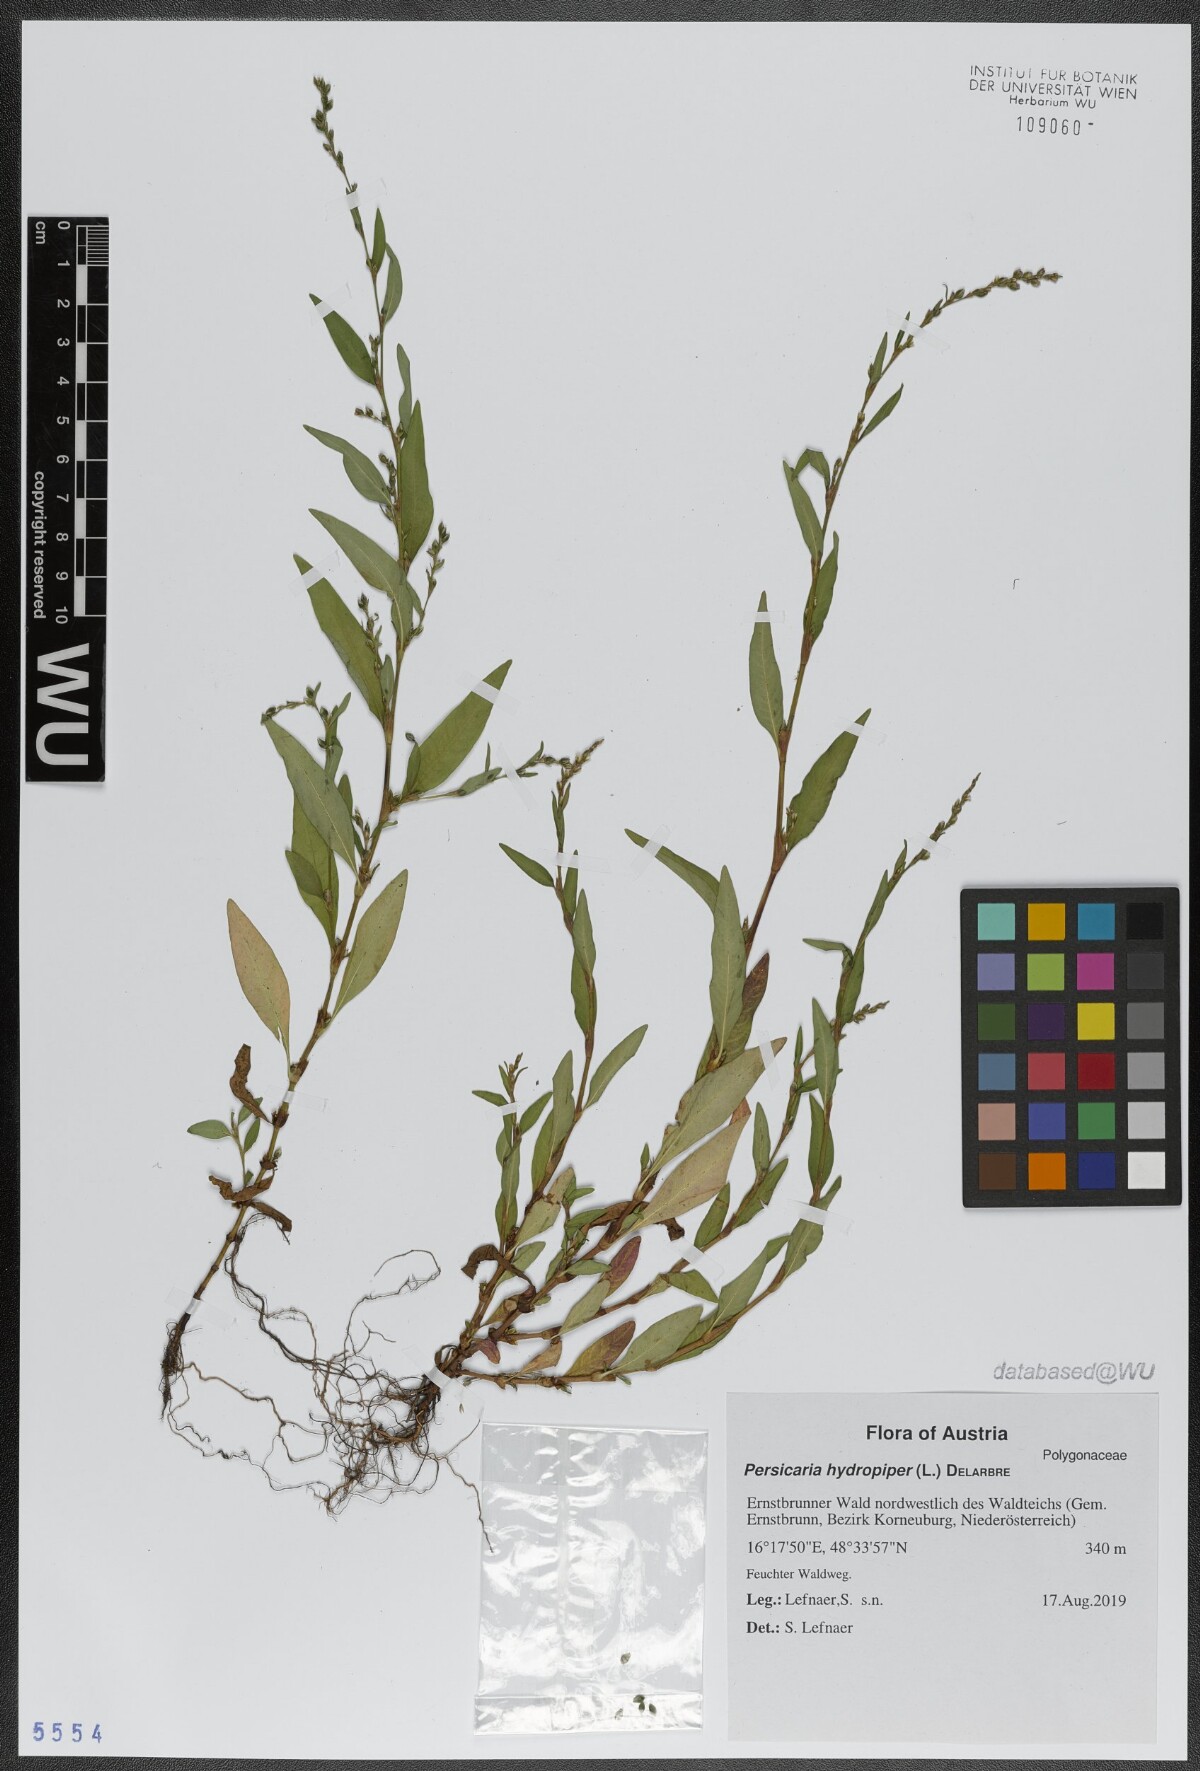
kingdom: Plantae
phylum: Tracheophyta
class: Magnoliopsida
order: Caryophyllales
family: Polygonaceae
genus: Persicaria
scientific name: Persicaria hydropiper
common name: Water-pepper
